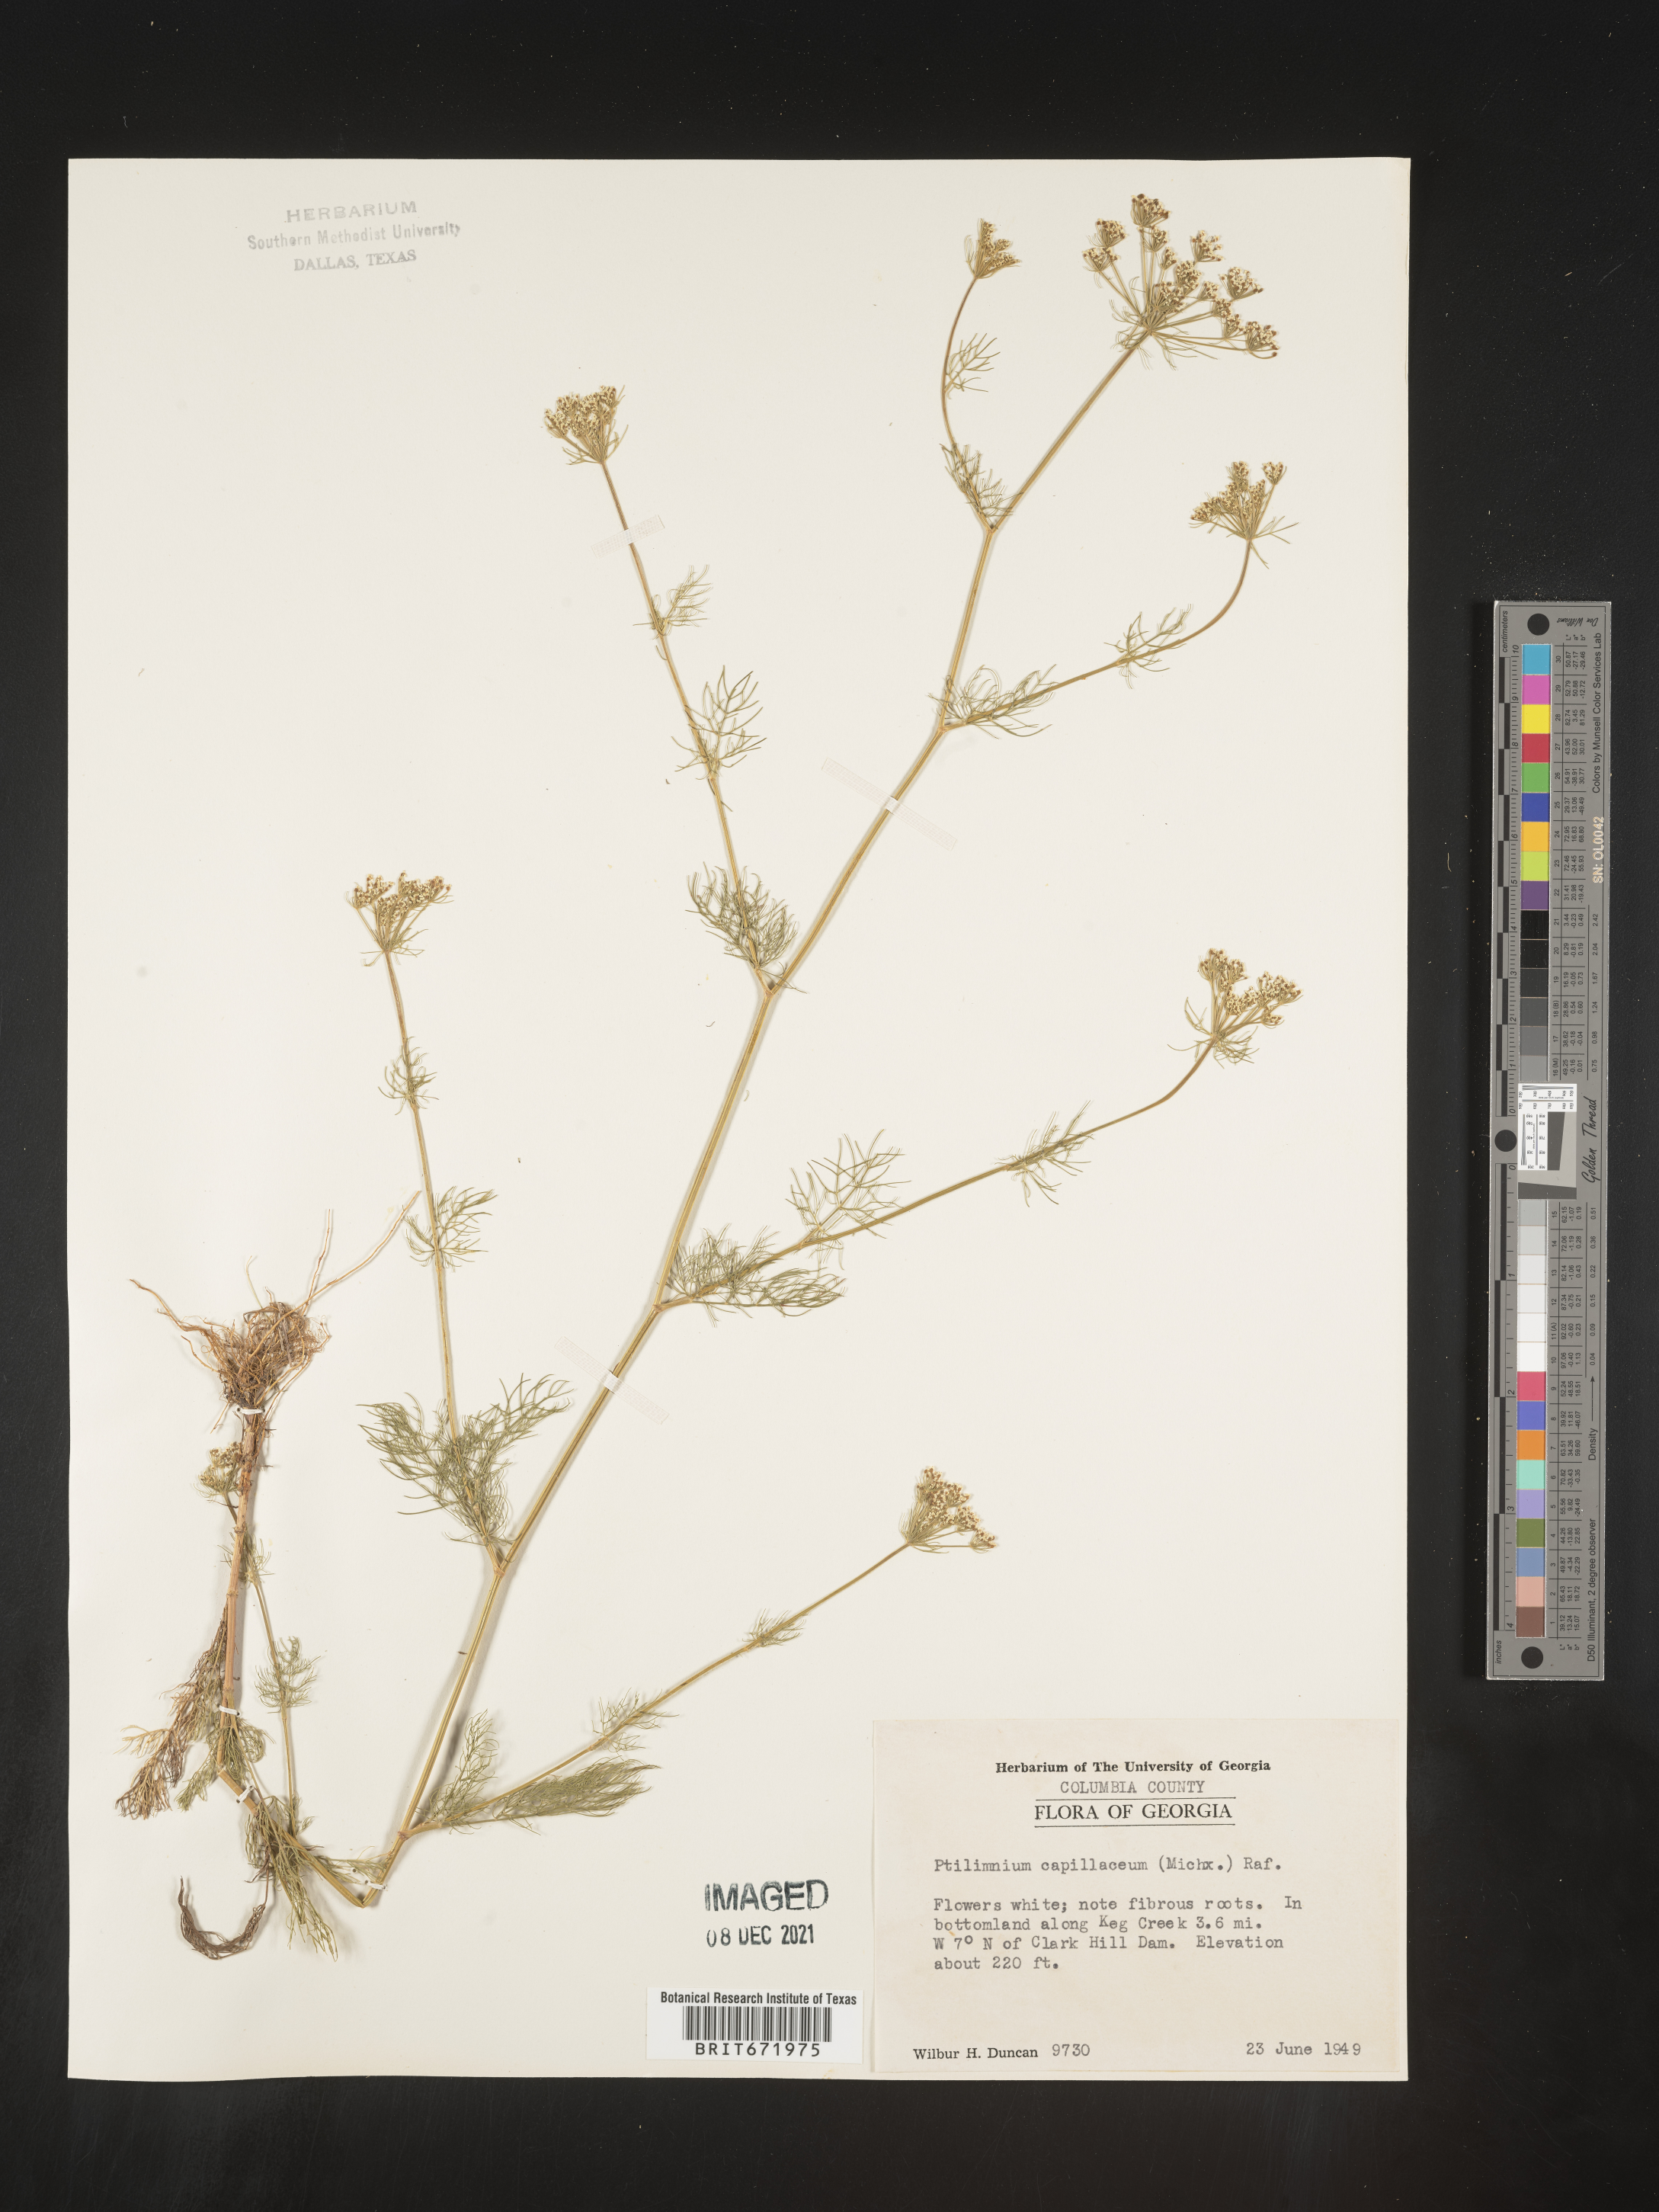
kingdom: Plantae
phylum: Tracheophyta
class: Magnoliopsida
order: Apiales
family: Apiaceae
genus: Ptilimnium
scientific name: Ptilimnium capillaceum
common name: Herbwilliam
